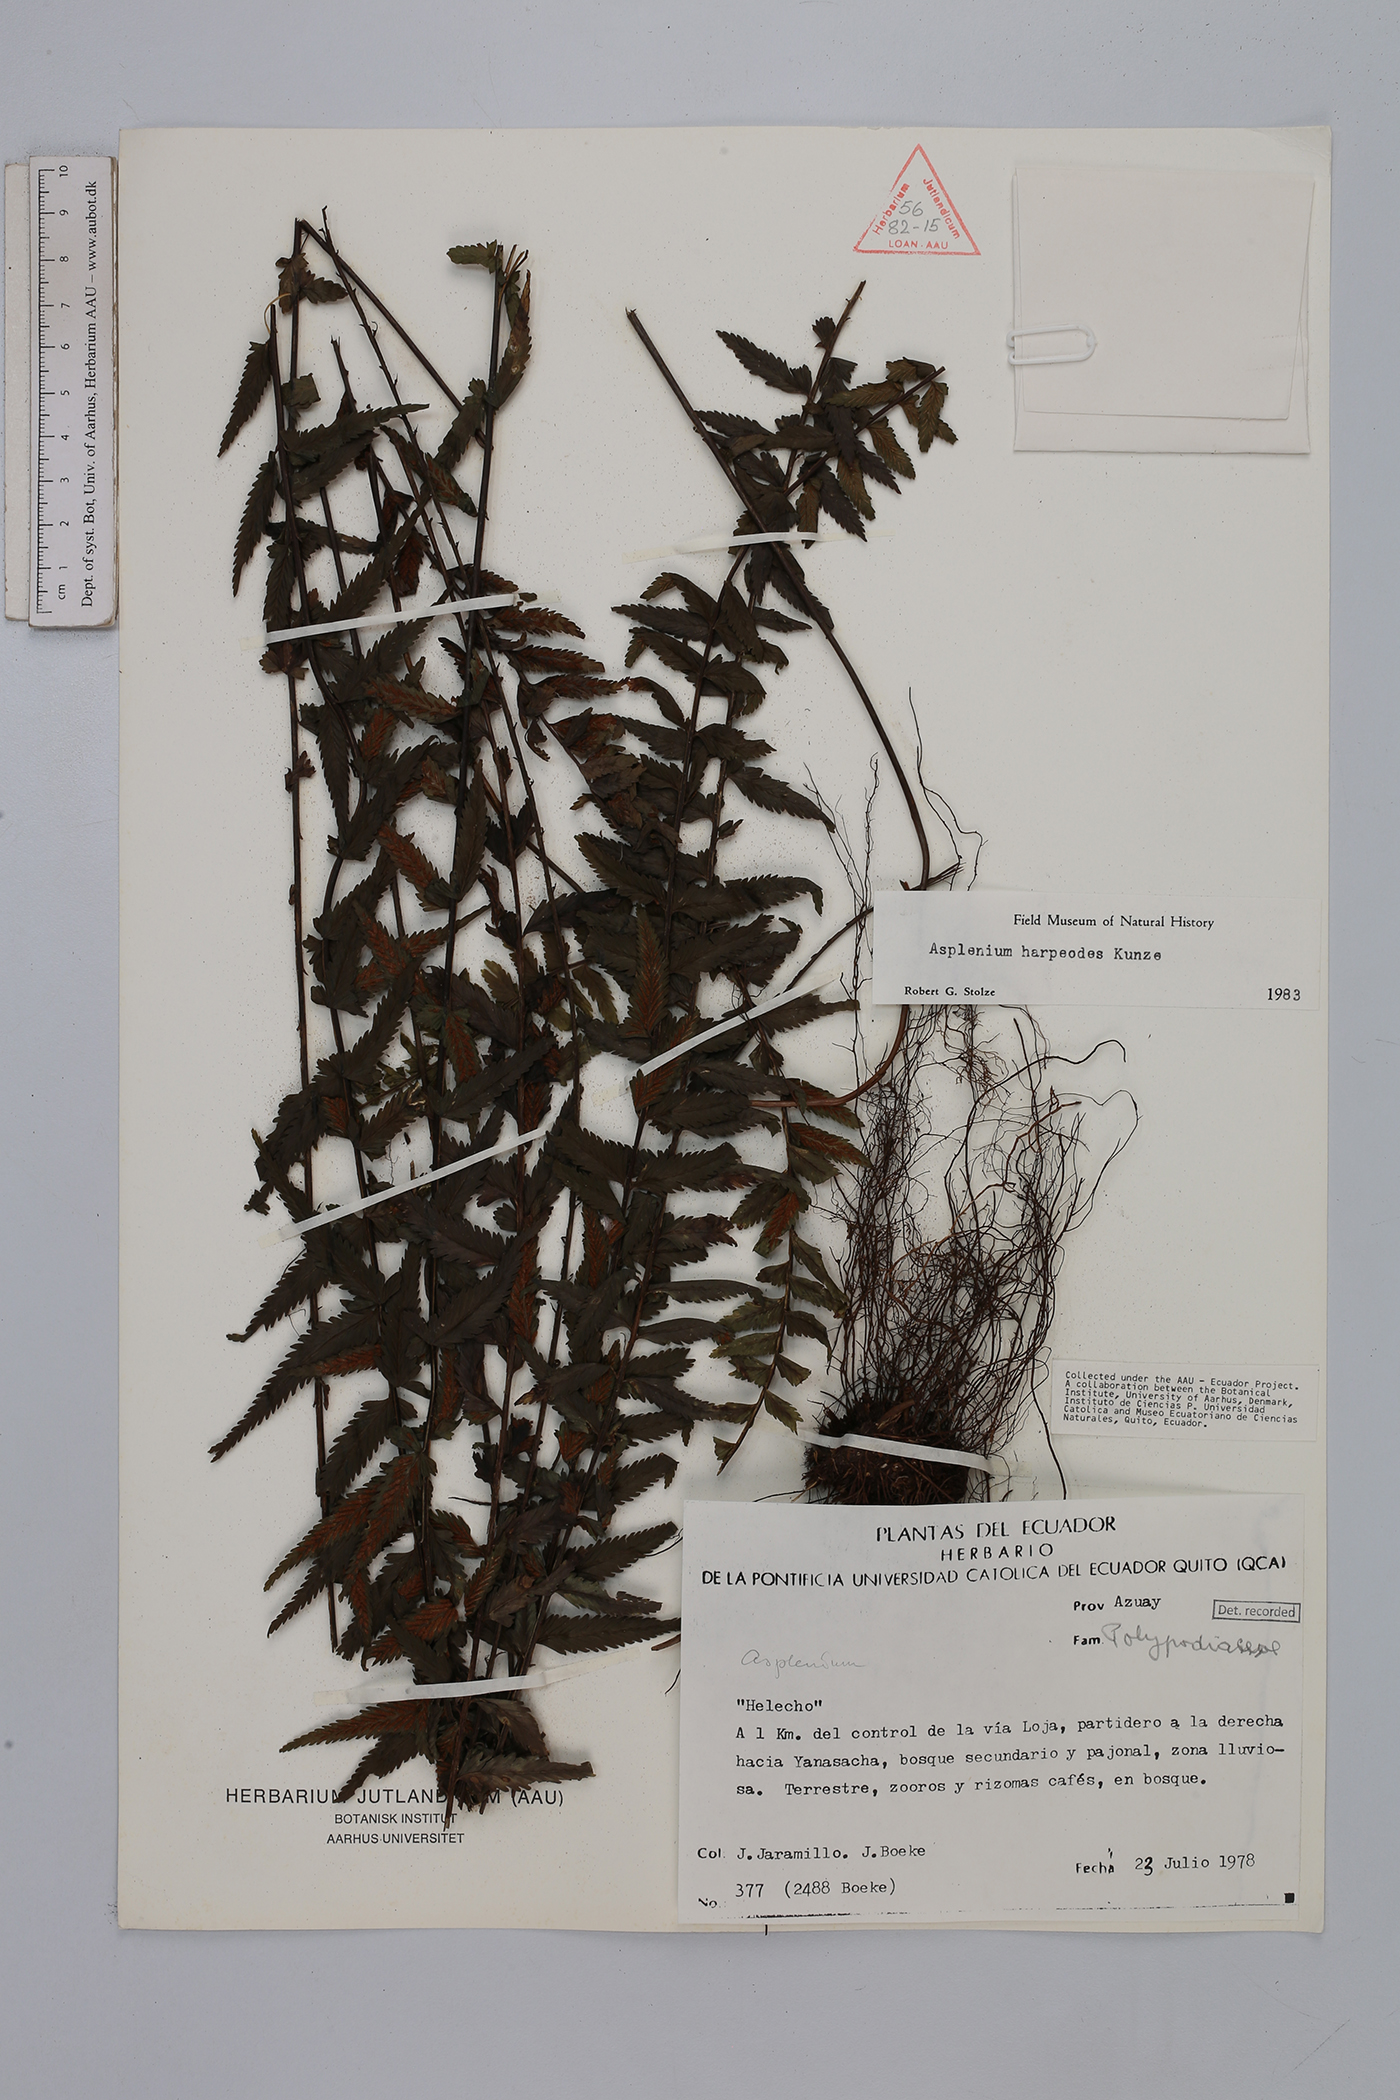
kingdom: Plantae
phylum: Tracheophyta
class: Polypodiopsida
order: Polypodiales
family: Aspleniaceae
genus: Asplenium
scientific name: Asplenium harpeodes
